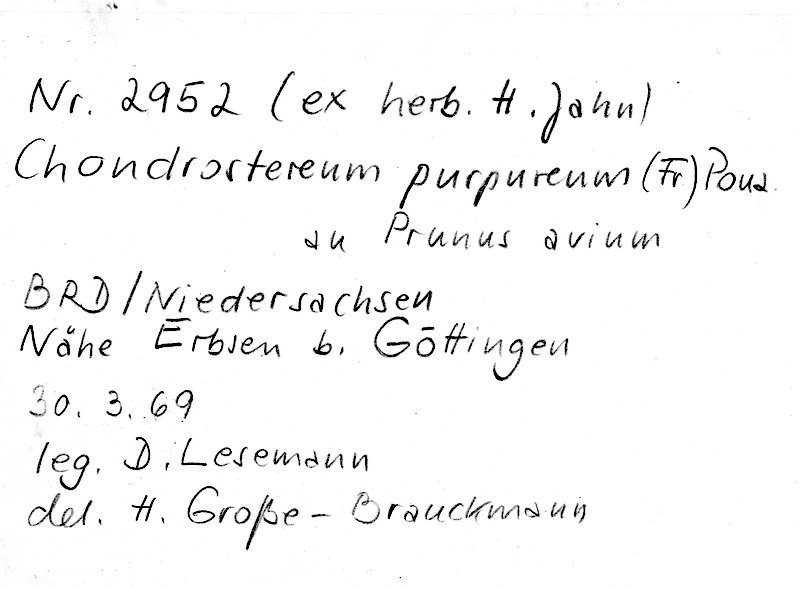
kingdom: Plantae
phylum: Tracheophyta
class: Magnoliopsida
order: Rosales
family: Rosaceae
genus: Prunus
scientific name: Prunus avium
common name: Sweet cherry
